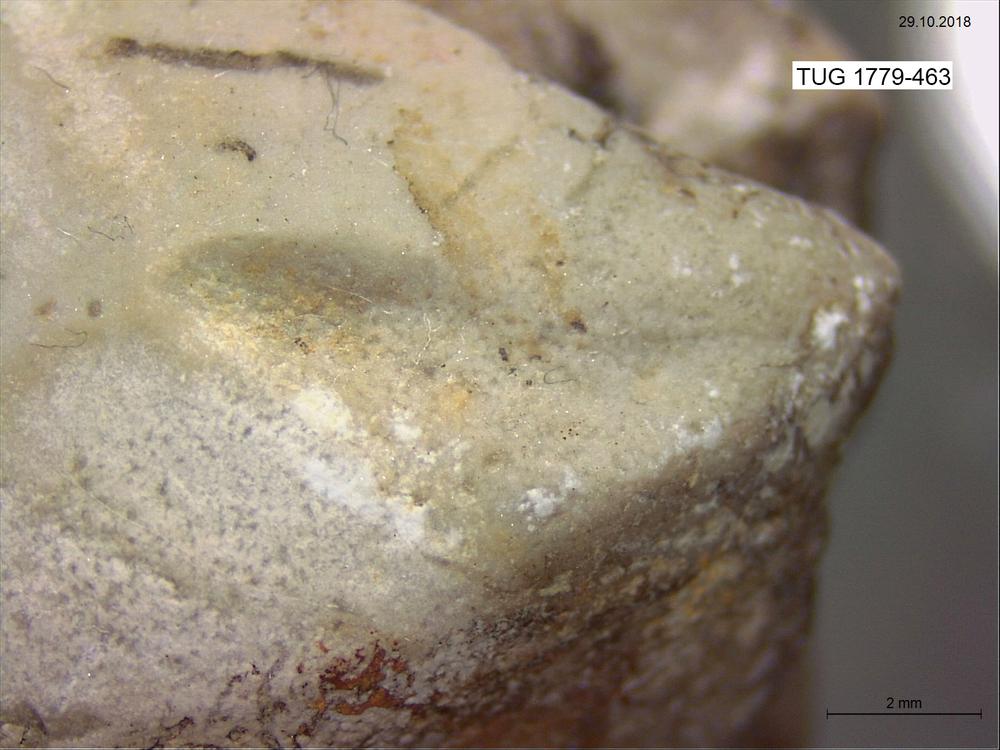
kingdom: Animalia
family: Coprulidae
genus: Coprulus
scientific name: Coprulus
